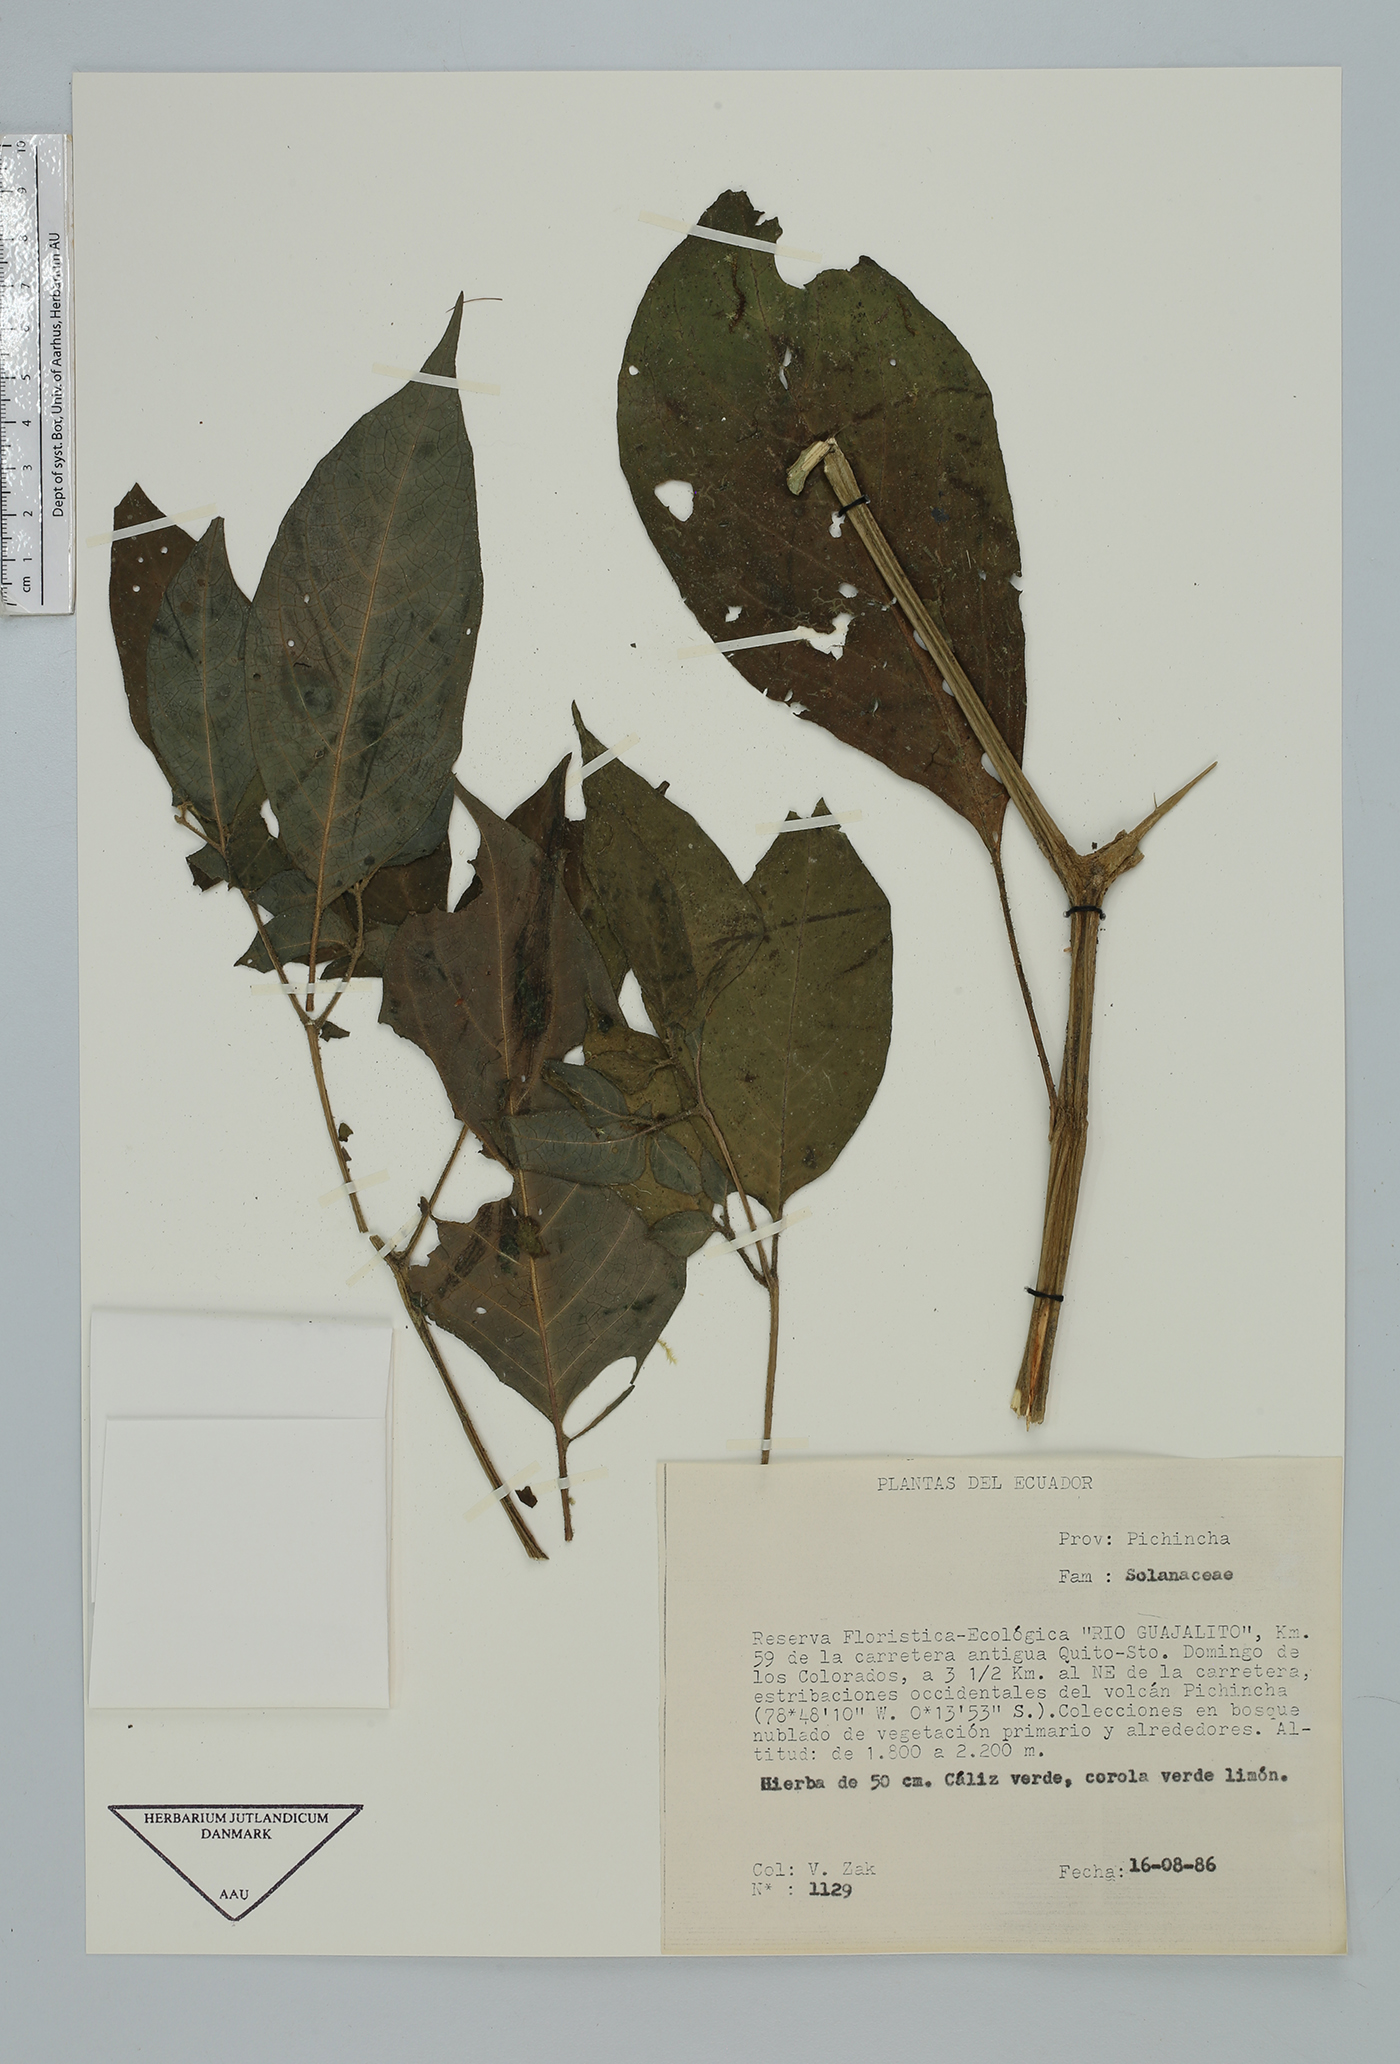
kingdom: Plantae
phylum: Tracheophyta
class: Magnoliopsida
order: Solanales
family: Solanaceae
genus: Solanum
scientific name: Solanum
